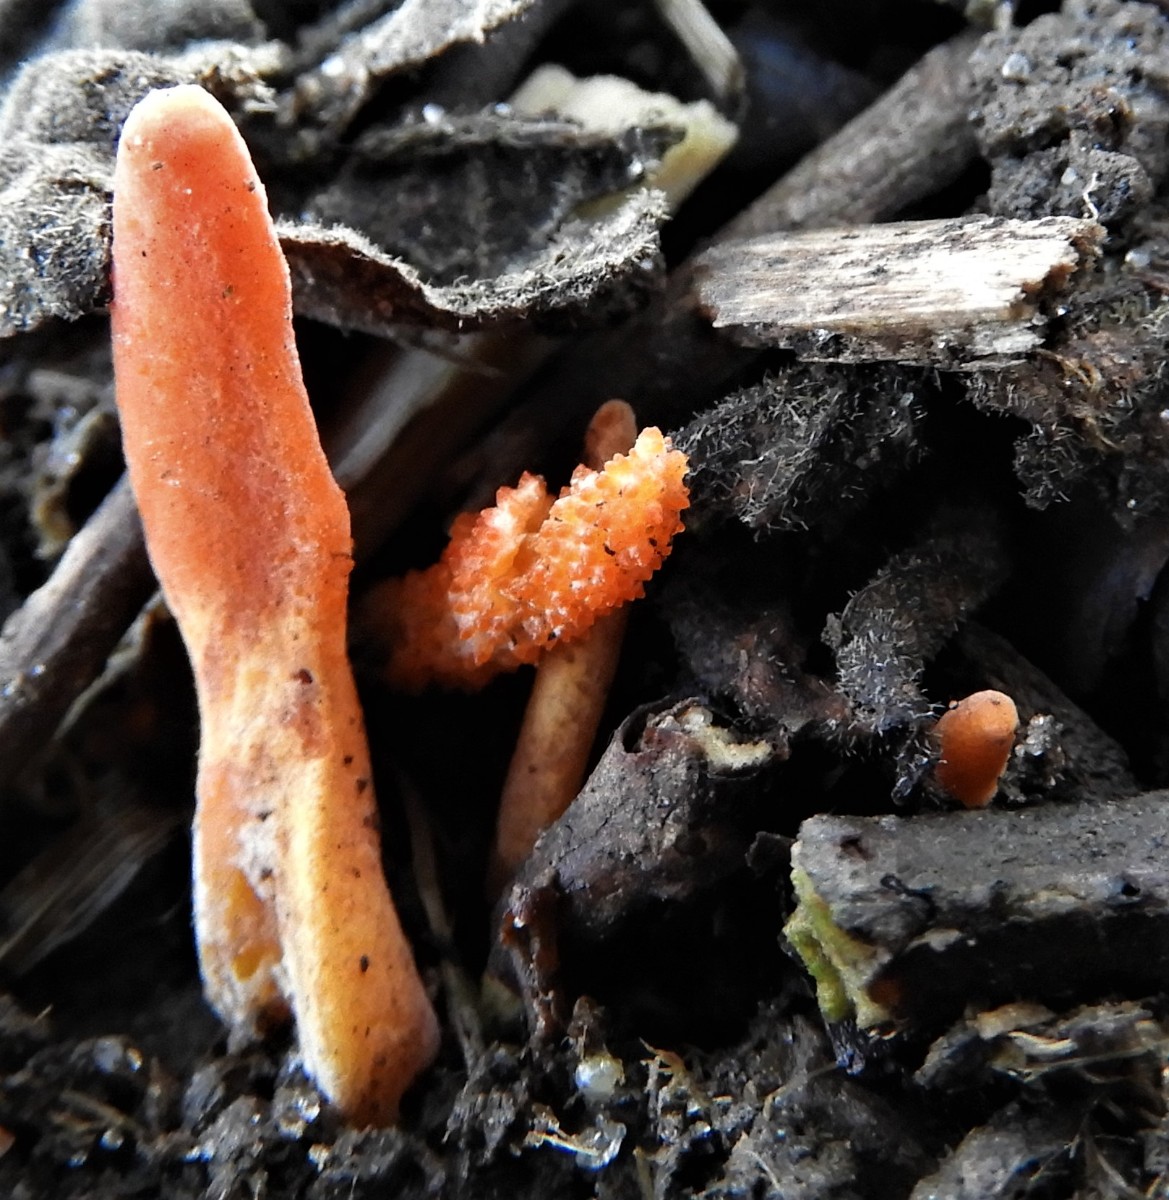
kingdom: Fungi
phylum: Ascomycota
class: Sordariomycetes
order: Hypocreales
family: Cordycipitaceae
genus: Cordyceps
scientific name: Cordyceps militaris
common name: puppe-snyltekølle
